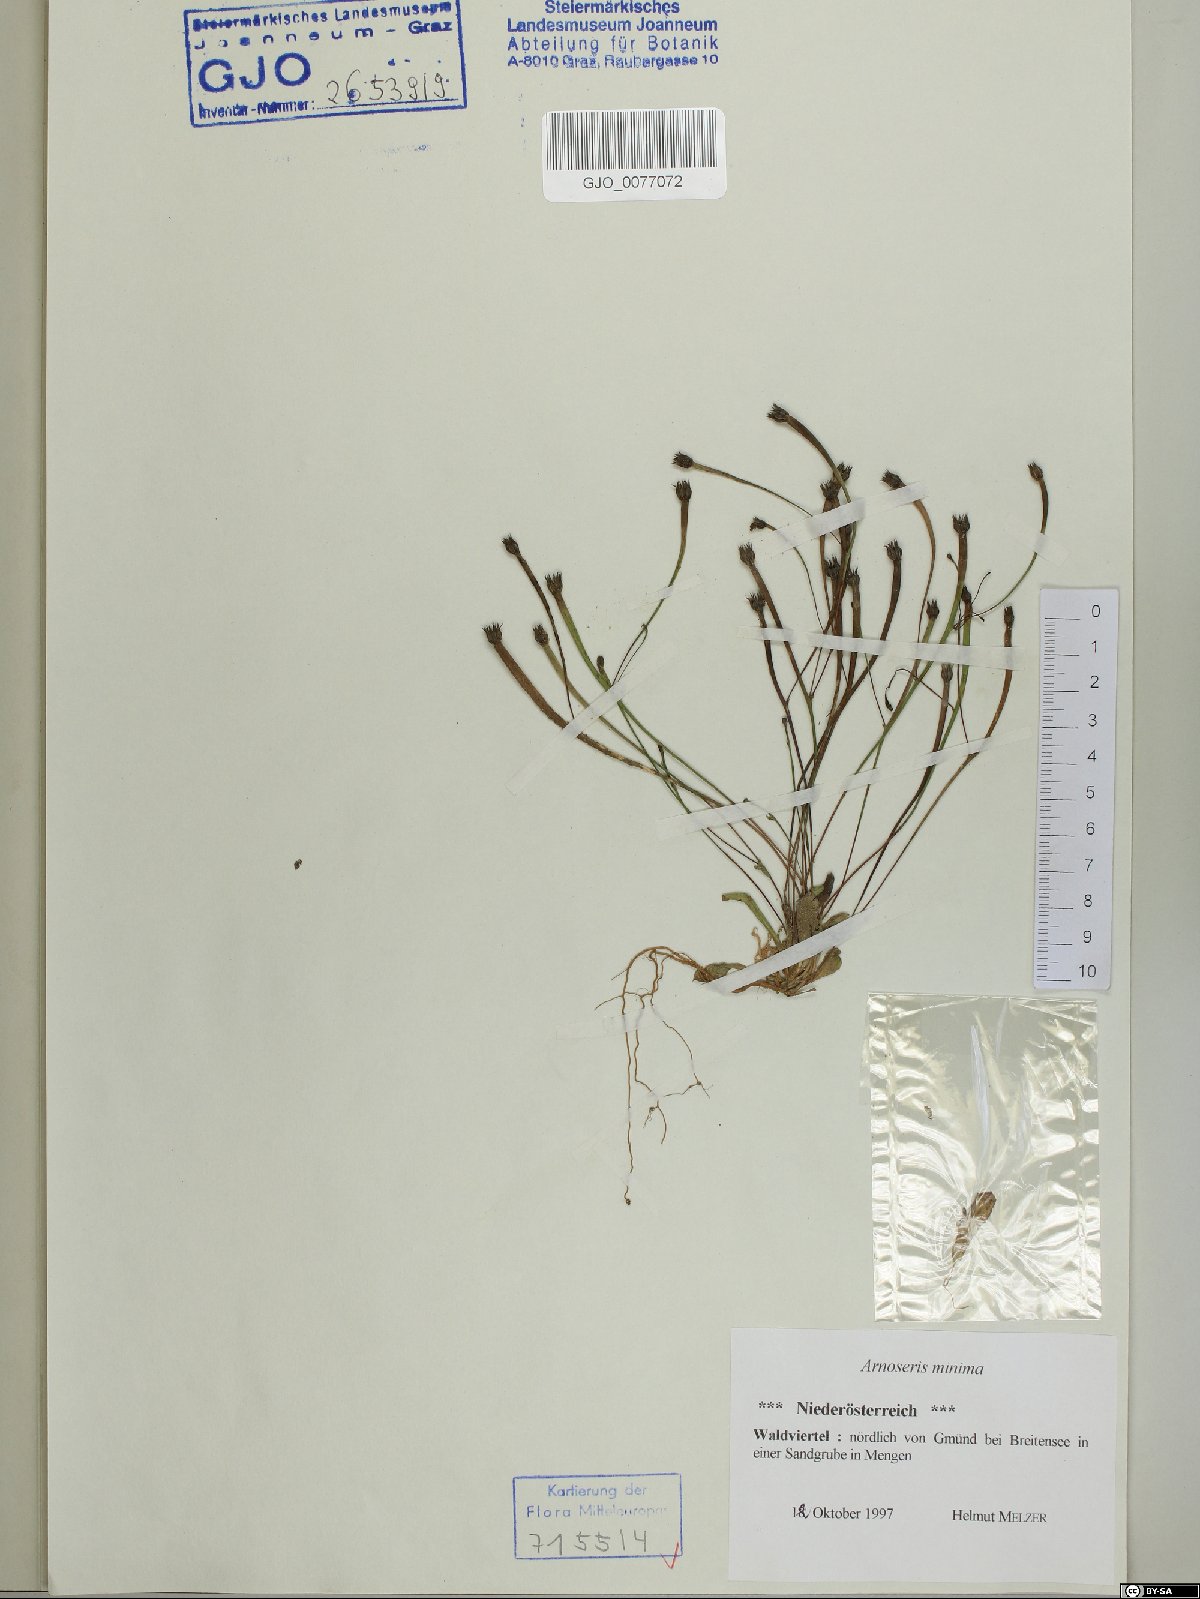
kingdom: Plantae
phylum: Tracheophyta
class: Magnoliopsida
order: Asterales
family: Asteraceae
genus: Arnoseris
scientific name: Arnoseris minima
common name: Lamb's succory
